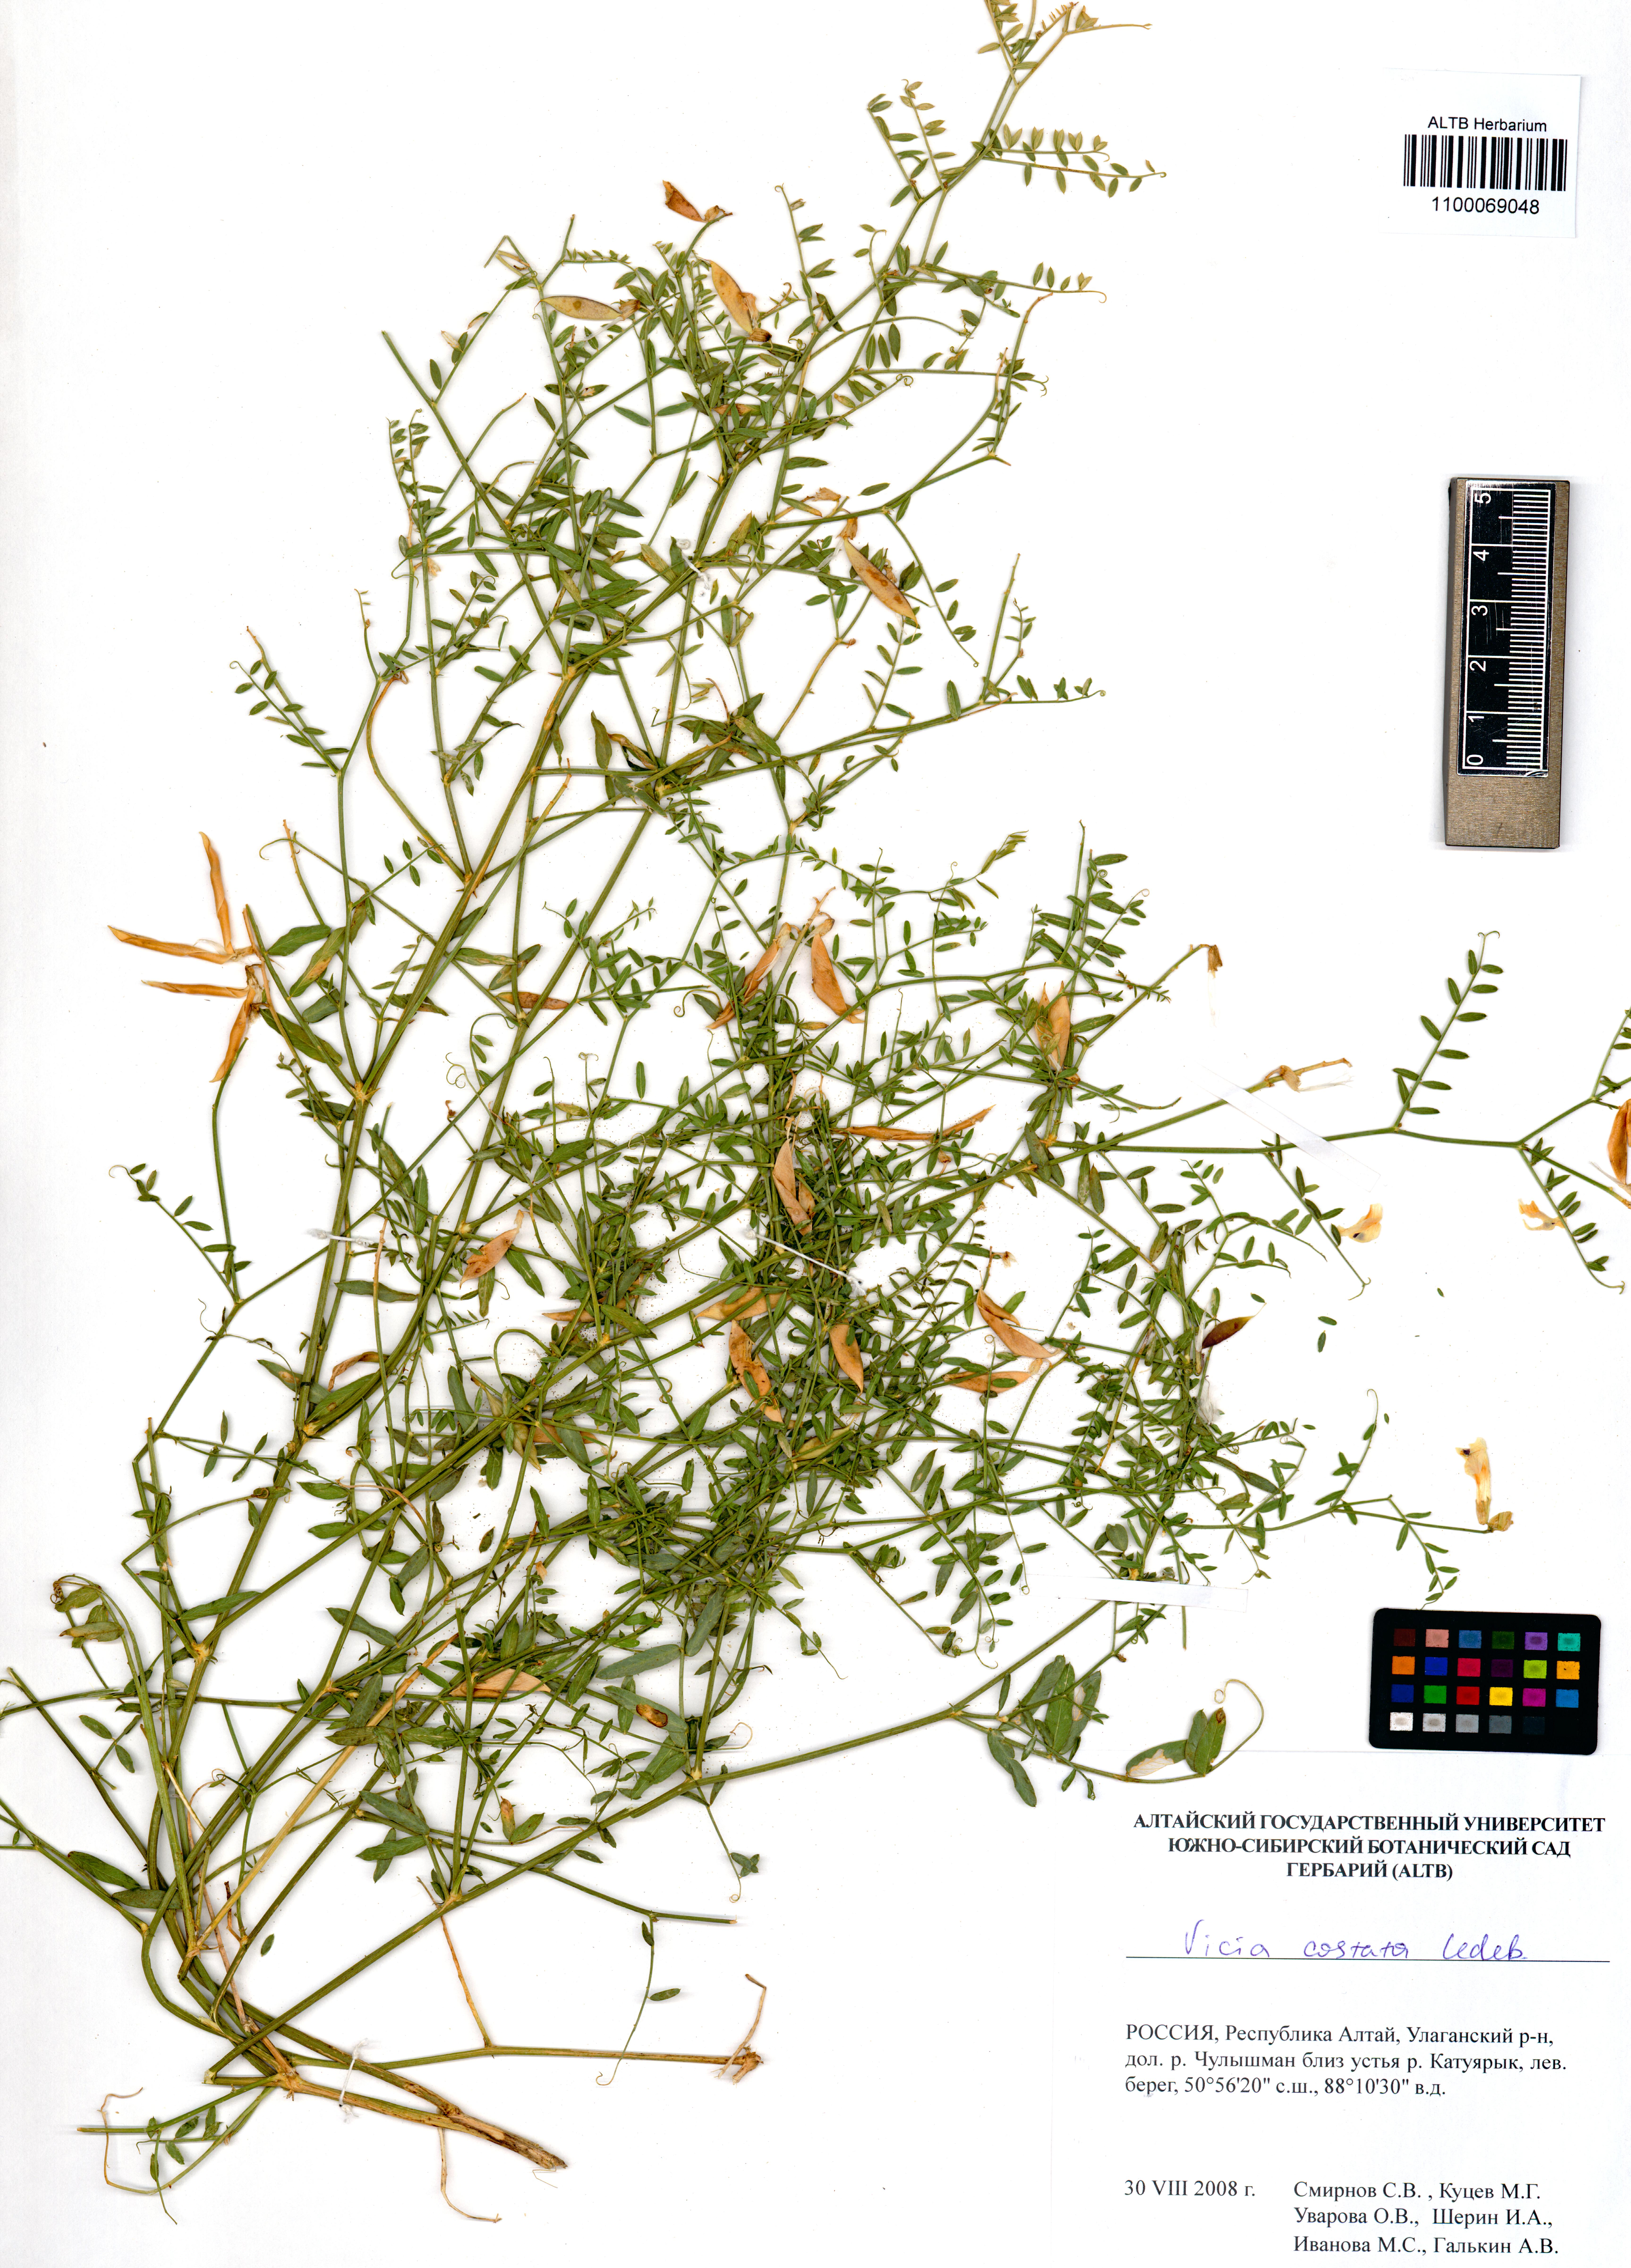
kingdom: Plantae
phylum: Tracheophyta
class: Magnoliopsida
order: Fabales
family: Fabaceae
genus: Vicia
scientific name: Vicia costata
